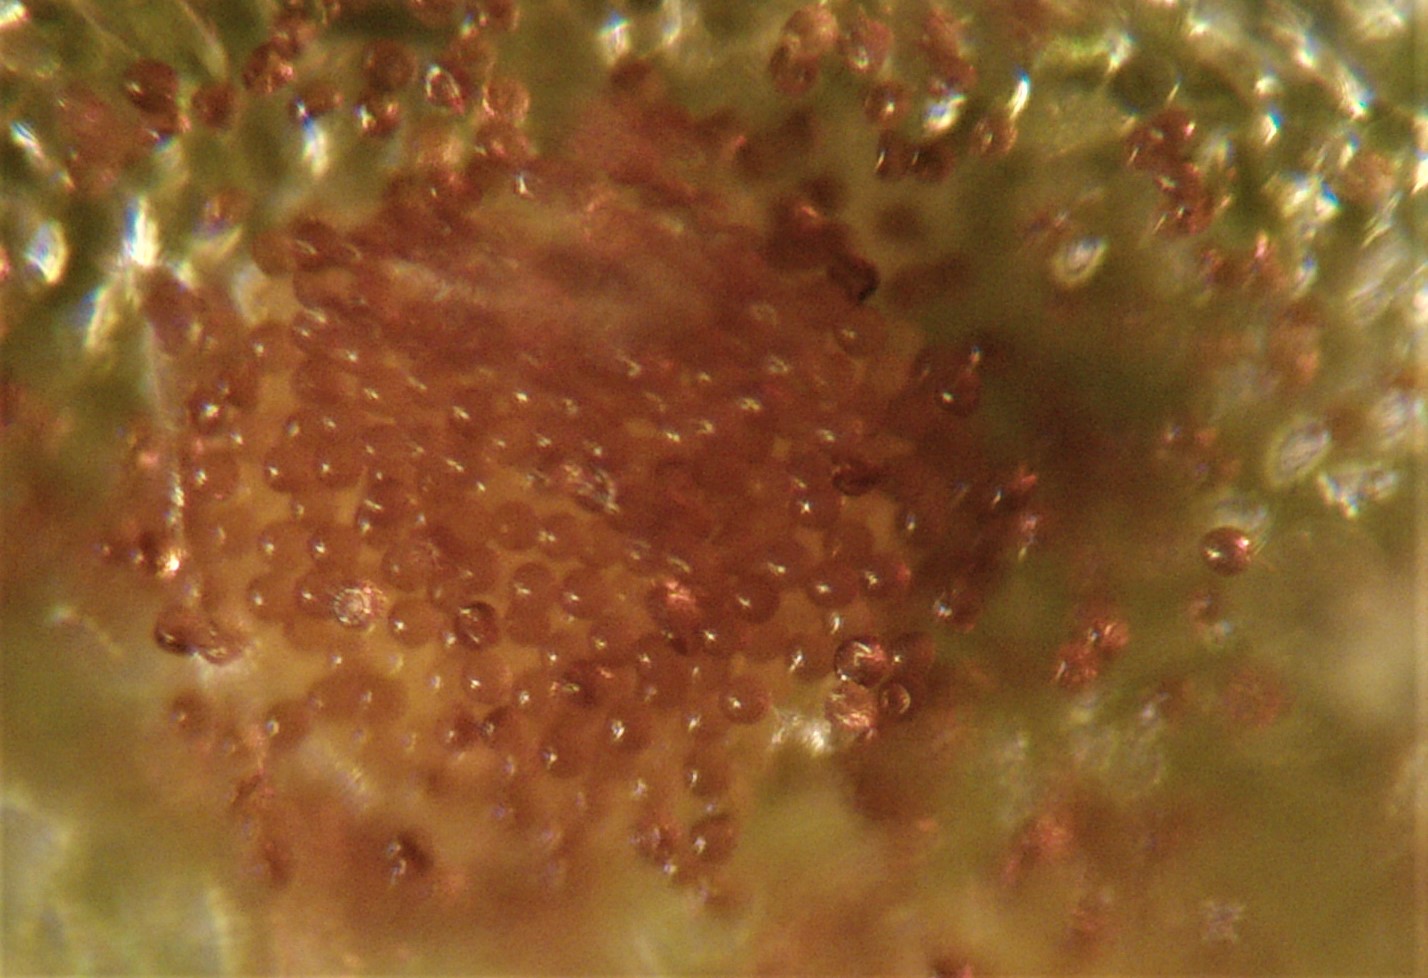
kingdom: Fungi
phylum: Basidiomycota
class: Pucciniomycetes
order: Pucciniales
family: Pucciniaceae
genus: Puccinia
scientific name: Puccinia suaveolens
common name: tidsel-tvecellerust
